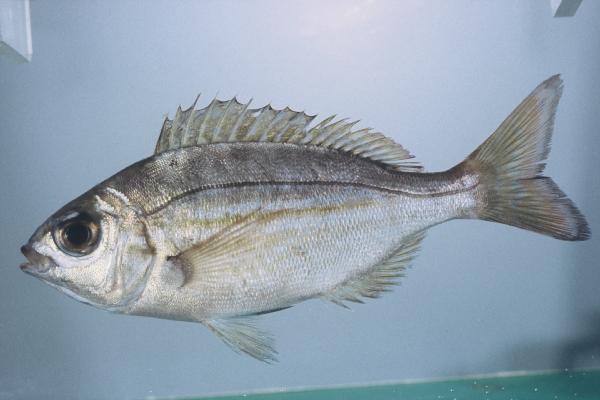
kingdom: Animalia
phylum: Chordata
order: Perciformes
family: Sparidae
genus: Spondyliosoma
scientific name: Spondyliosoma emarginatum
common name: Steentje seabream
